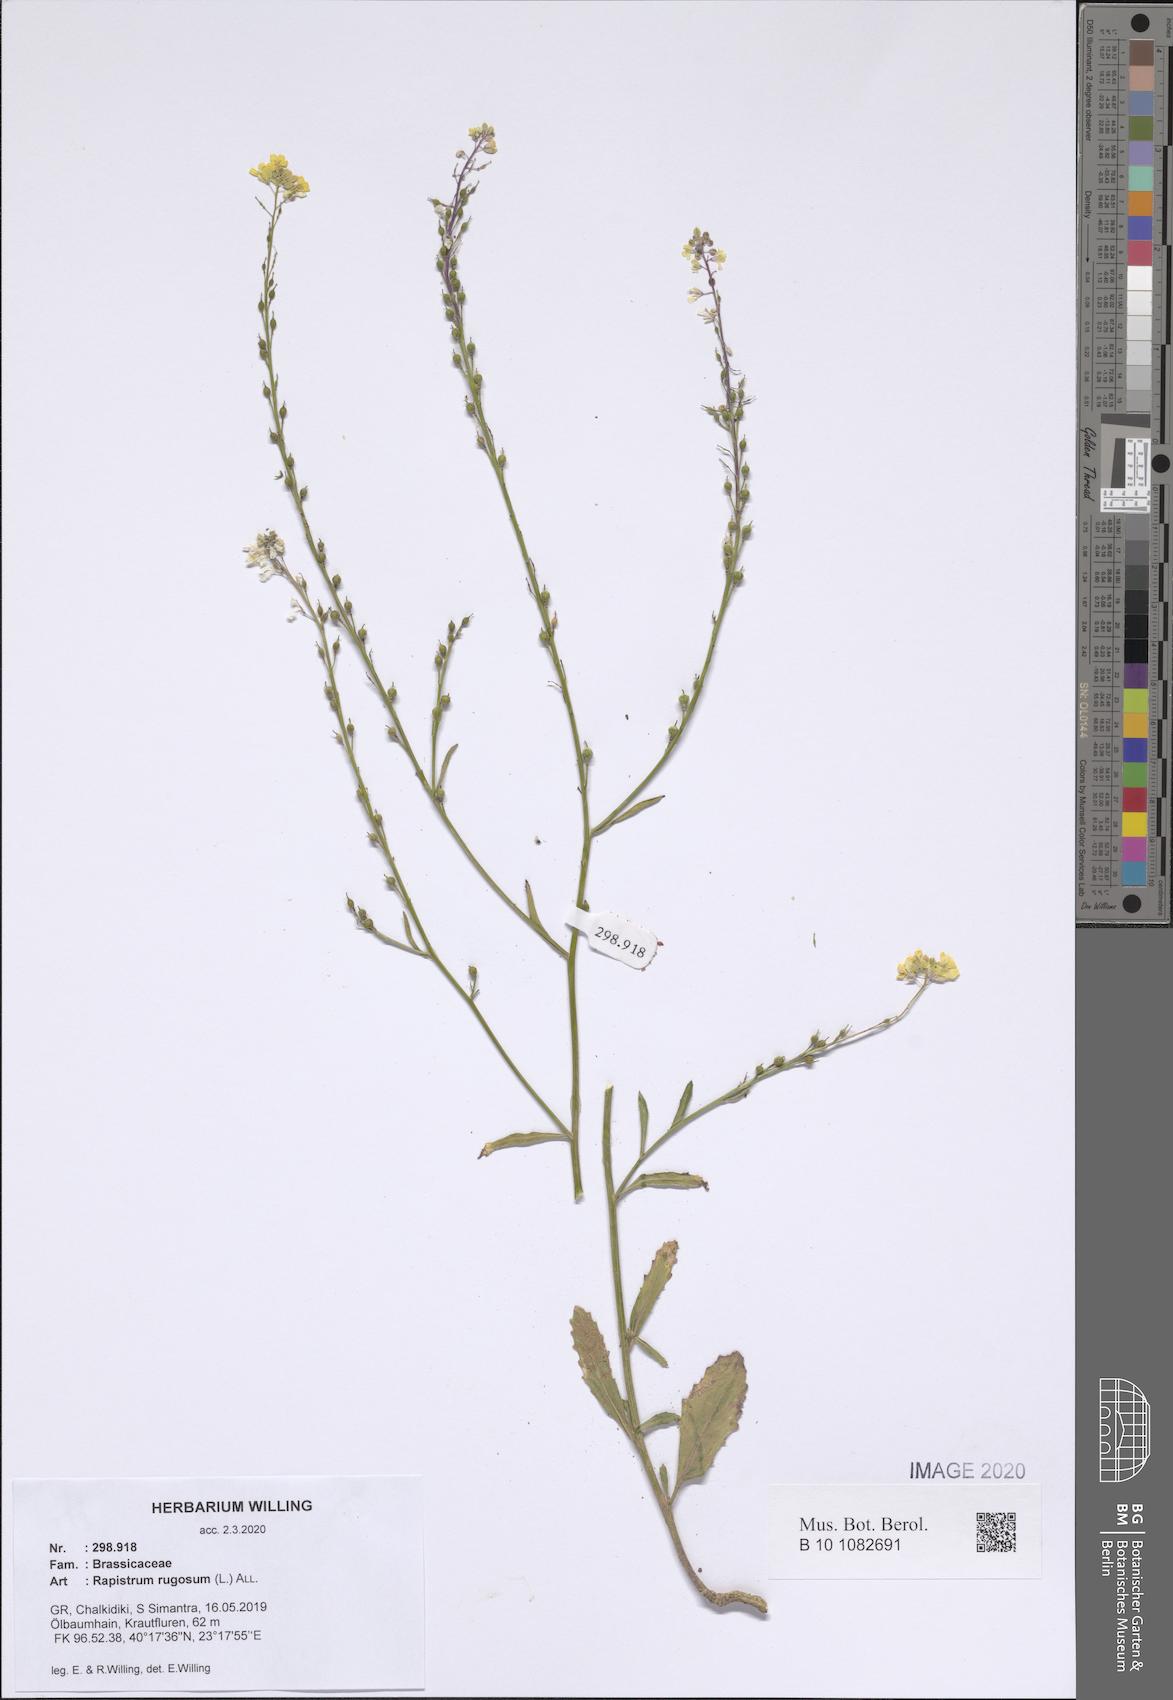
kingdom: Plantae
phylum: Tracheophyta
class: Magnoliopsida
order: Brassicales
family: Brassicaceae
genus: Rapistrum
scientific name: Rapistrum rugosum
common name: Annual bastardcabbage
